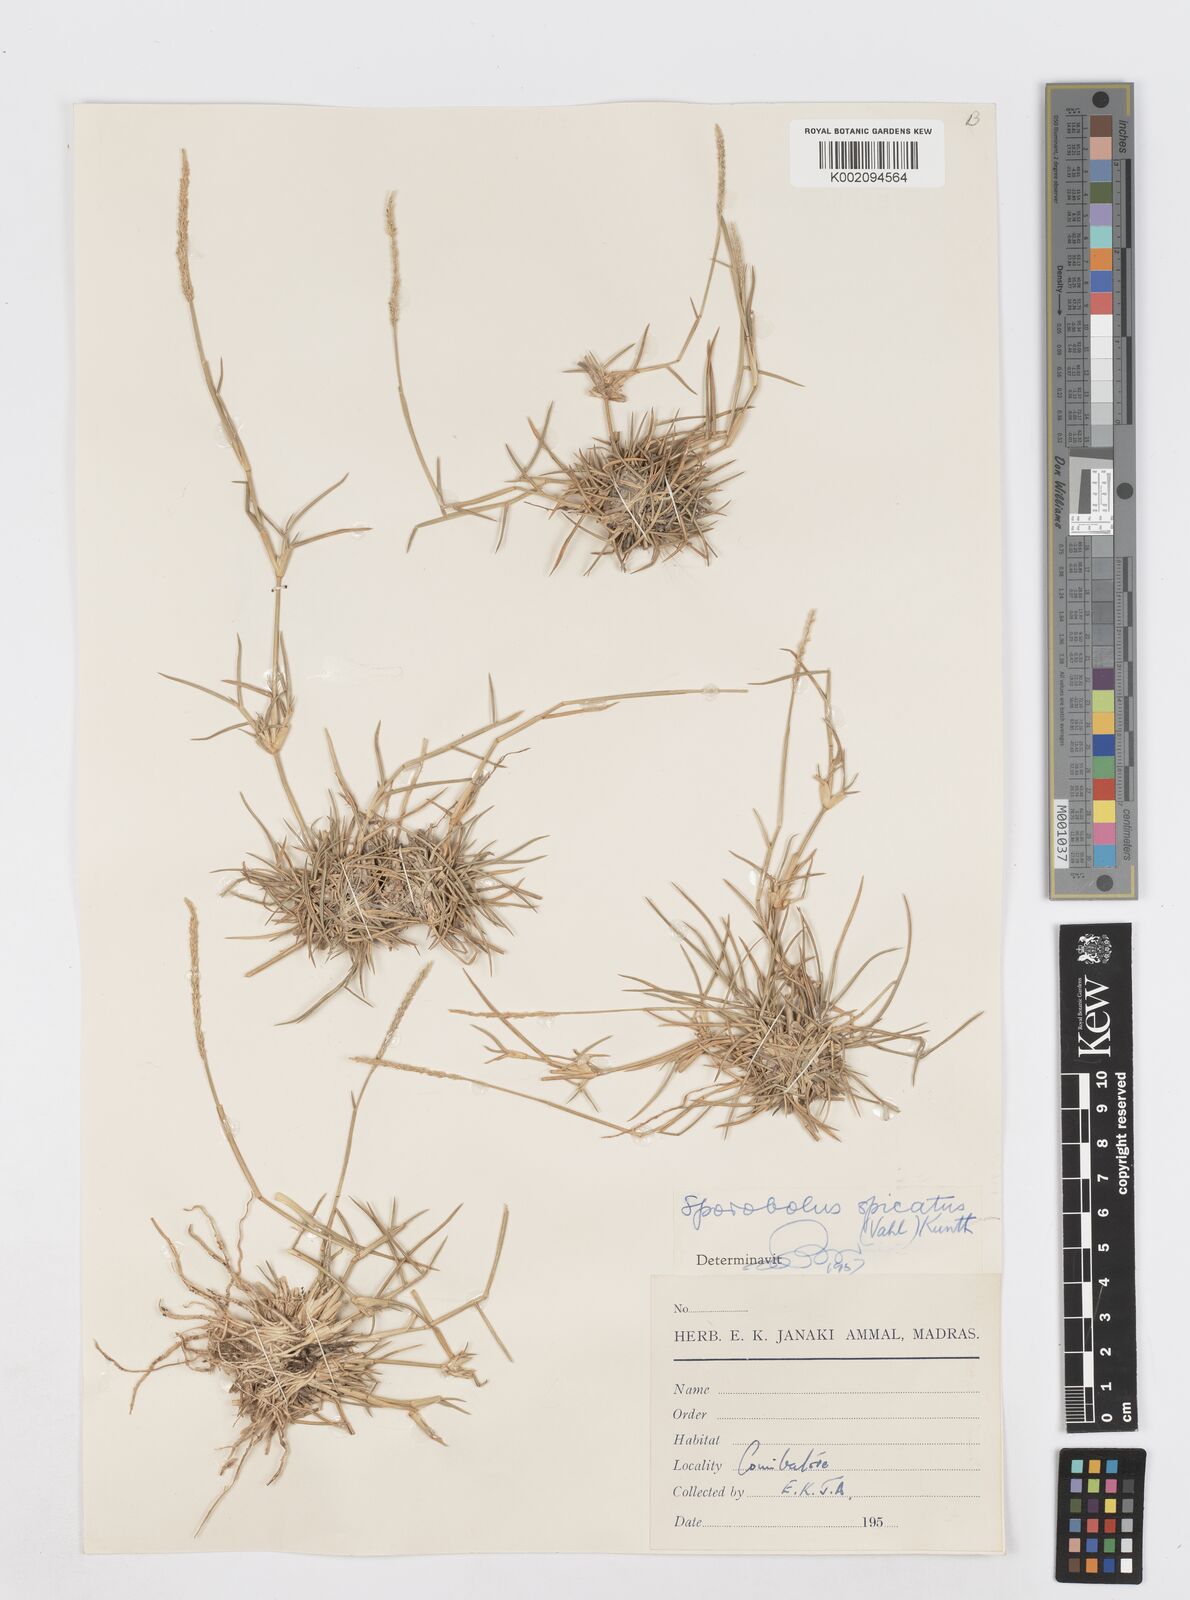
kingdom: Plantae
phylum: Tracheophyta
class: Liliopsida
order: Poales
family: Poaceae
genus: Sporobolus
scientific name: Sporobolus spicatus
